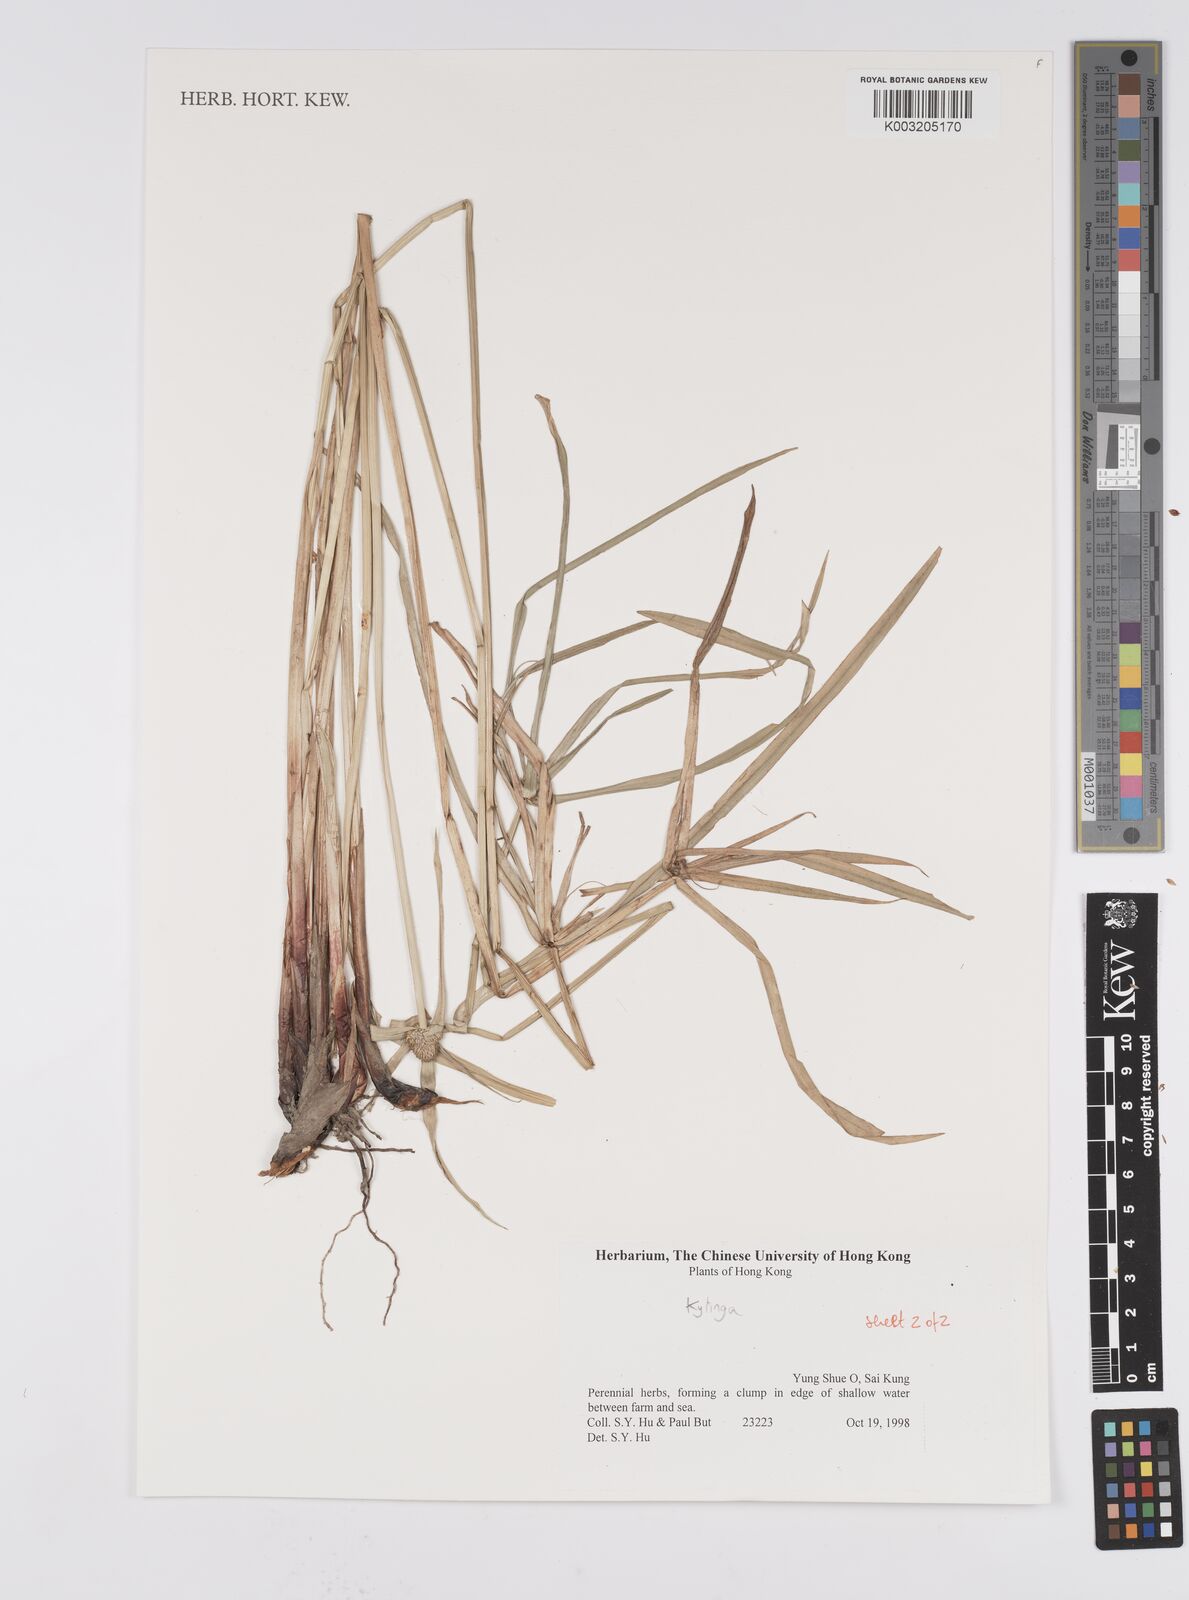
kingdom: Plantae
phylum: Tracheophyta
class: Liliopsida
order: Poales
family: Cyperaceae
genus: Cyperus
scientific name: Cyperus
